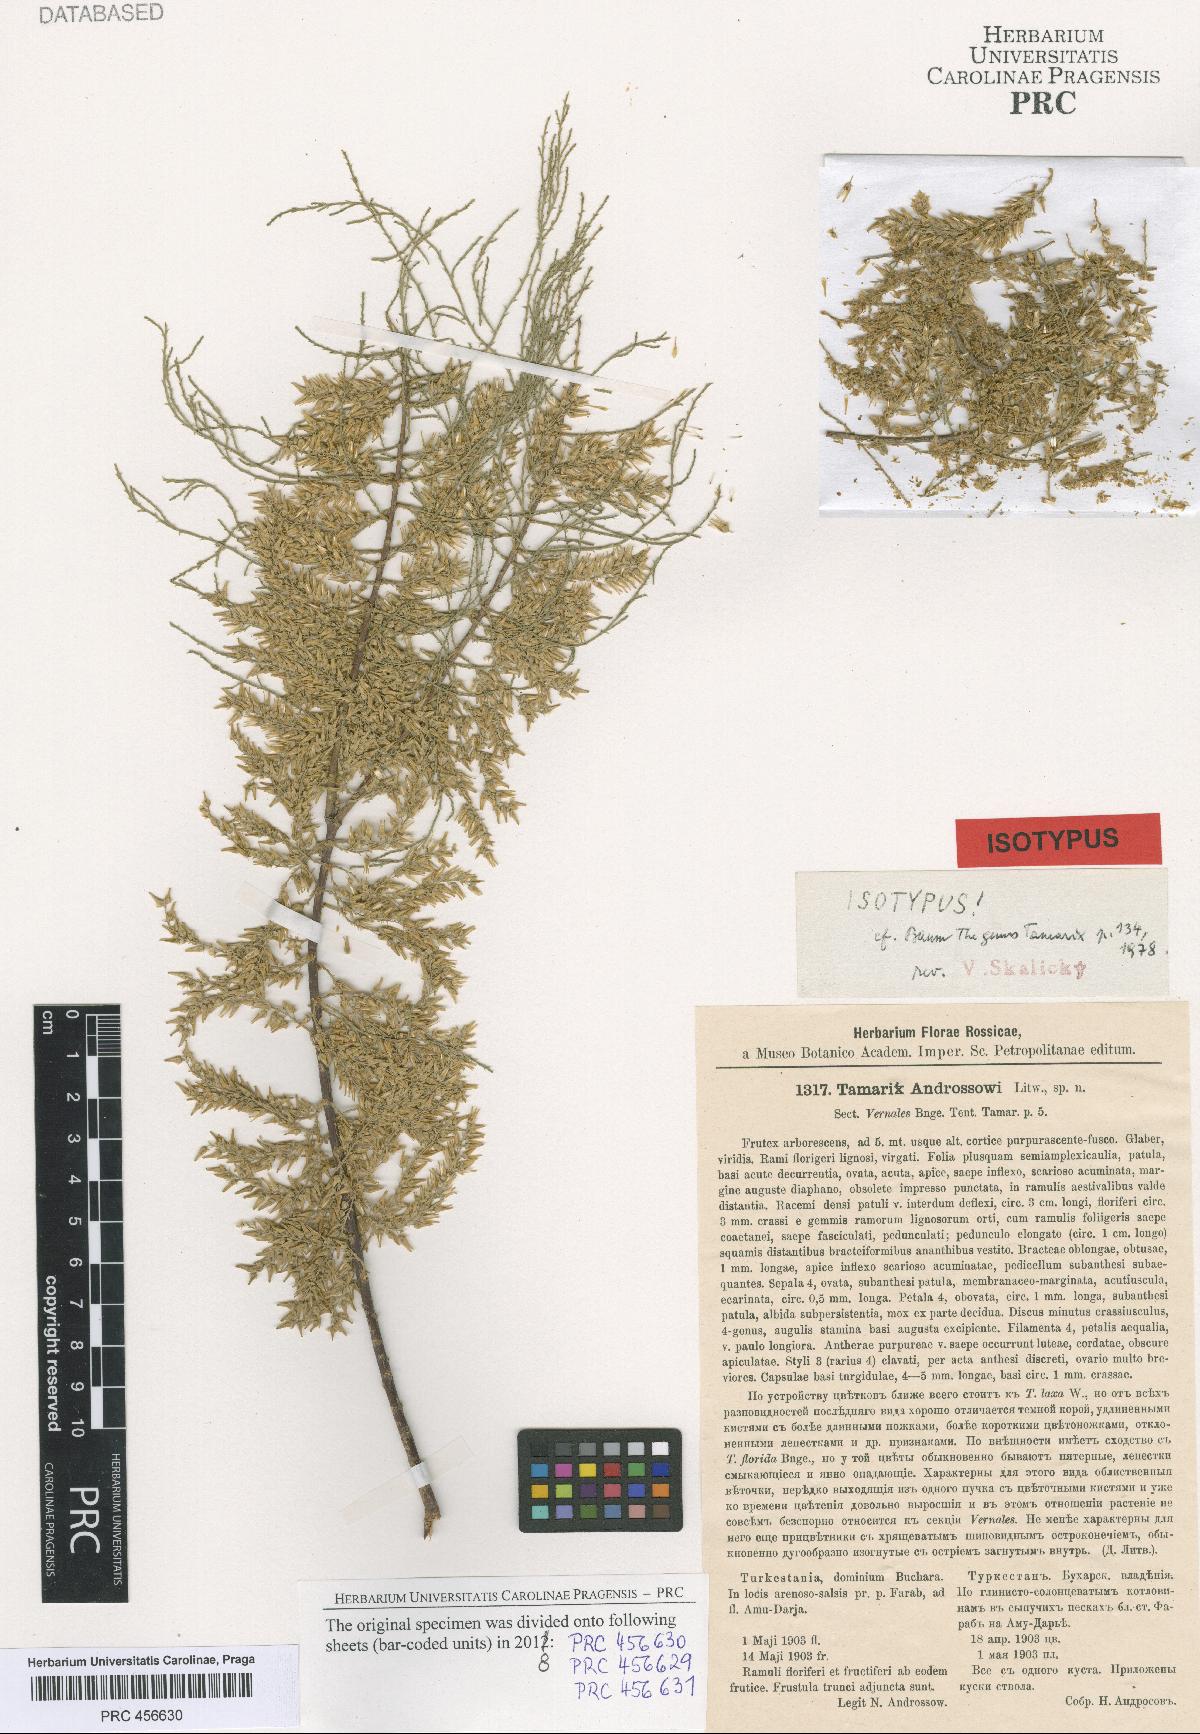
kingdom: Plantae
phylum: Tracheophyta
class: Magnoliopsida
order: Caryophyllales
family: Tamaricaceae
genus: Tamarix
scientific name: Tamarix androssowii
